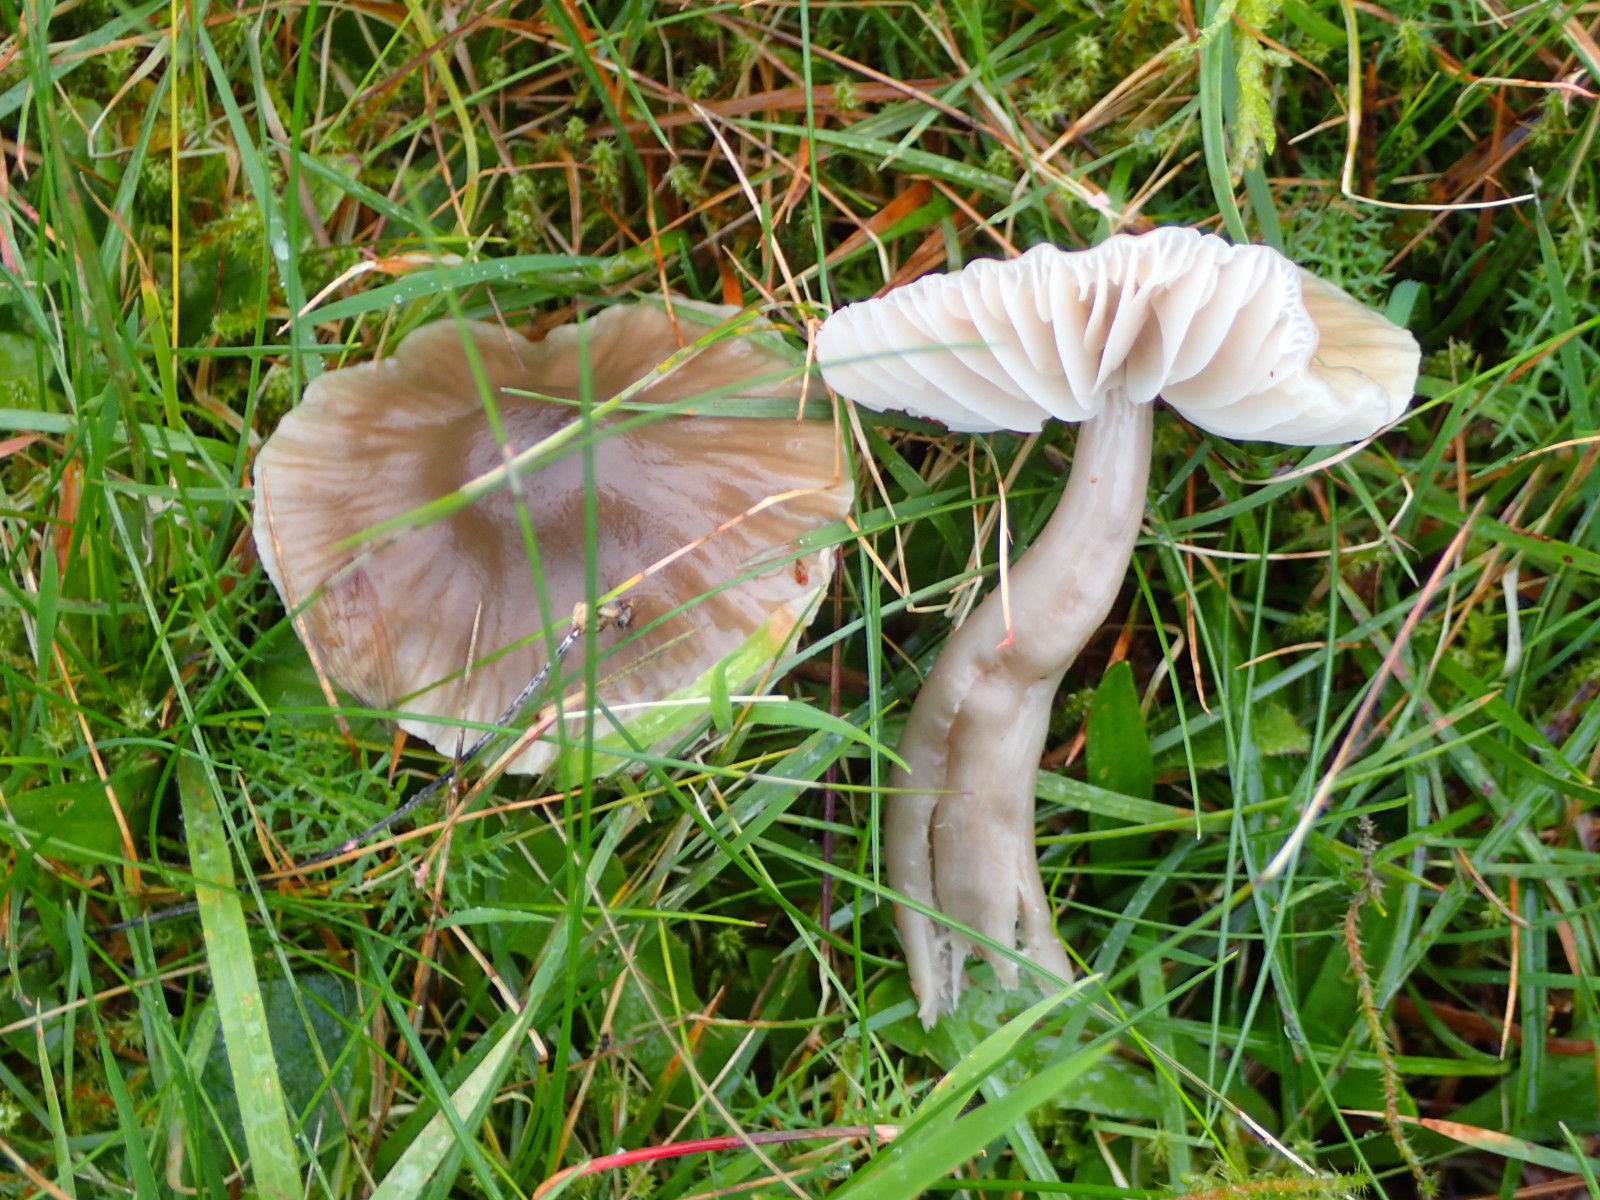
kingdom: Fungi
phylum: Basidiomycota
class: Agaricomycetes
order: Agaricales
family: Hygrophoraceae
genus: Gliophorus
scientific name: Gliophorus irrigatus
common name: slimet vokshat
